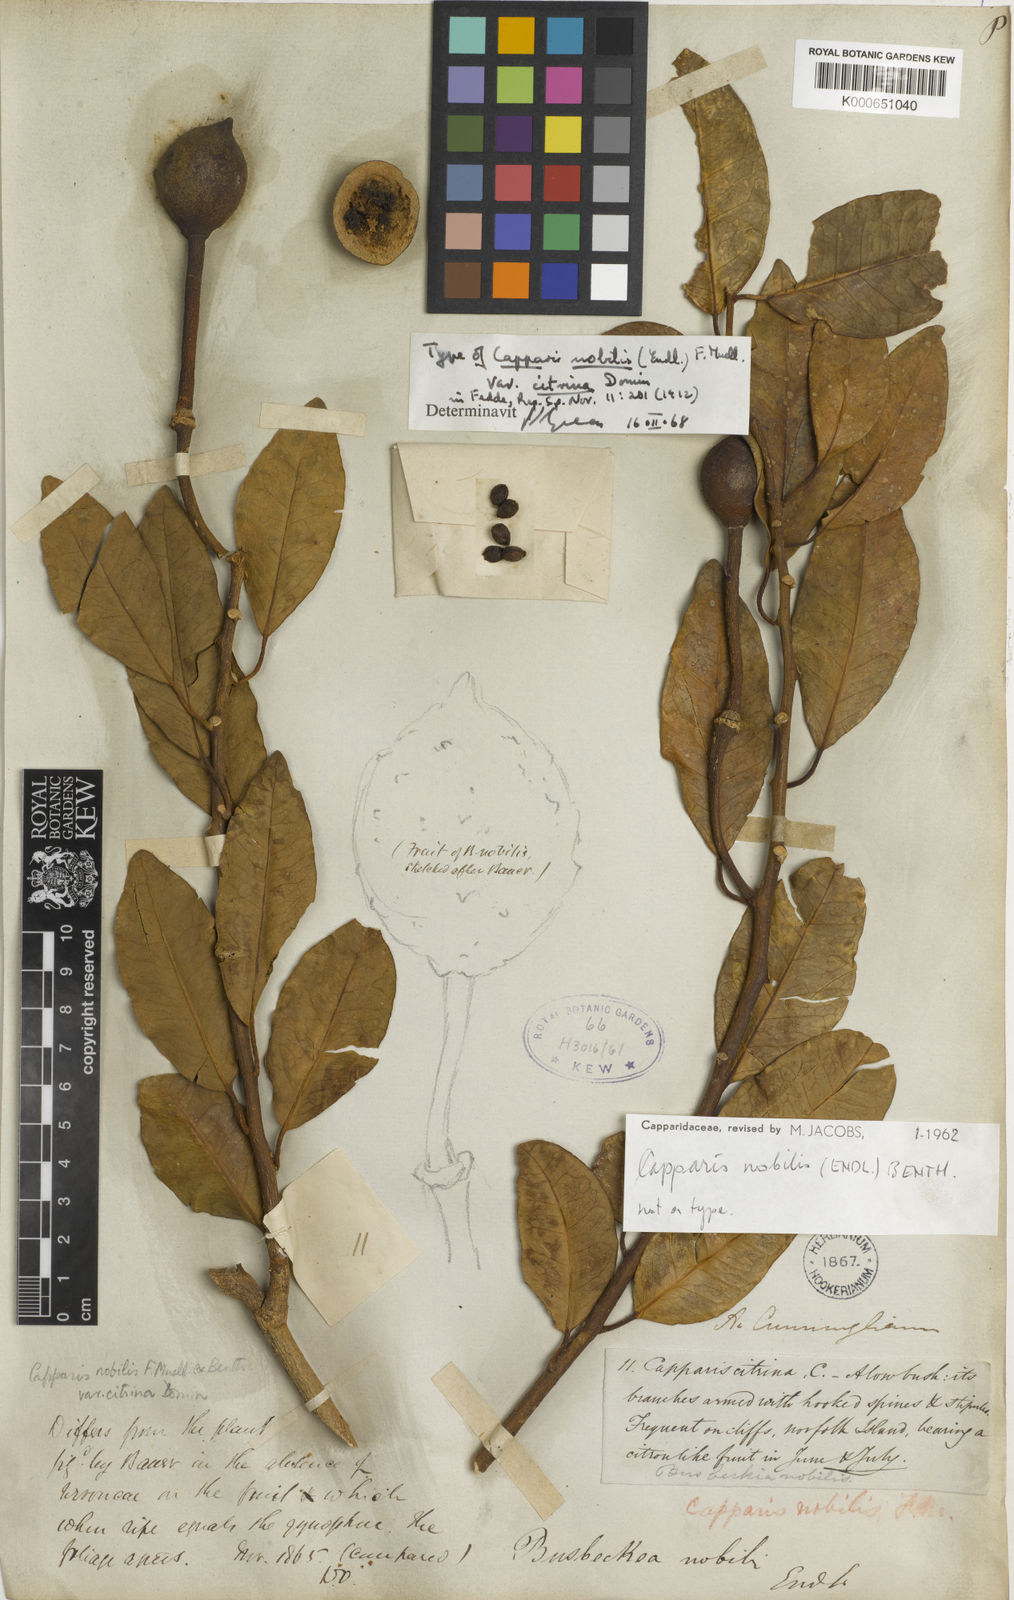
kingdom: Plantae
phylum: Tracheophyta
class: Magnoliopsida
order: Brassicales
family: Capparaceae
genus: Capparis
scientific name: Capparis nobilis
